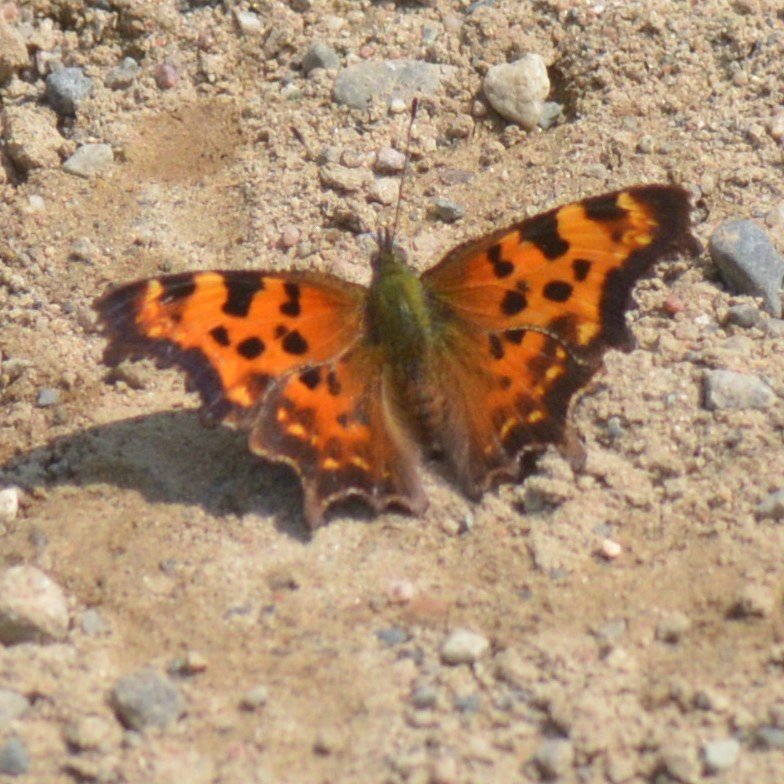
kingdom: Animalia
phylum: Arthropoda
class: Insecta
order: Lepidoptera
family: Nymphalidae
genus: Polygonia
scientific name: Polygonia faunus
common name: Green Comma
